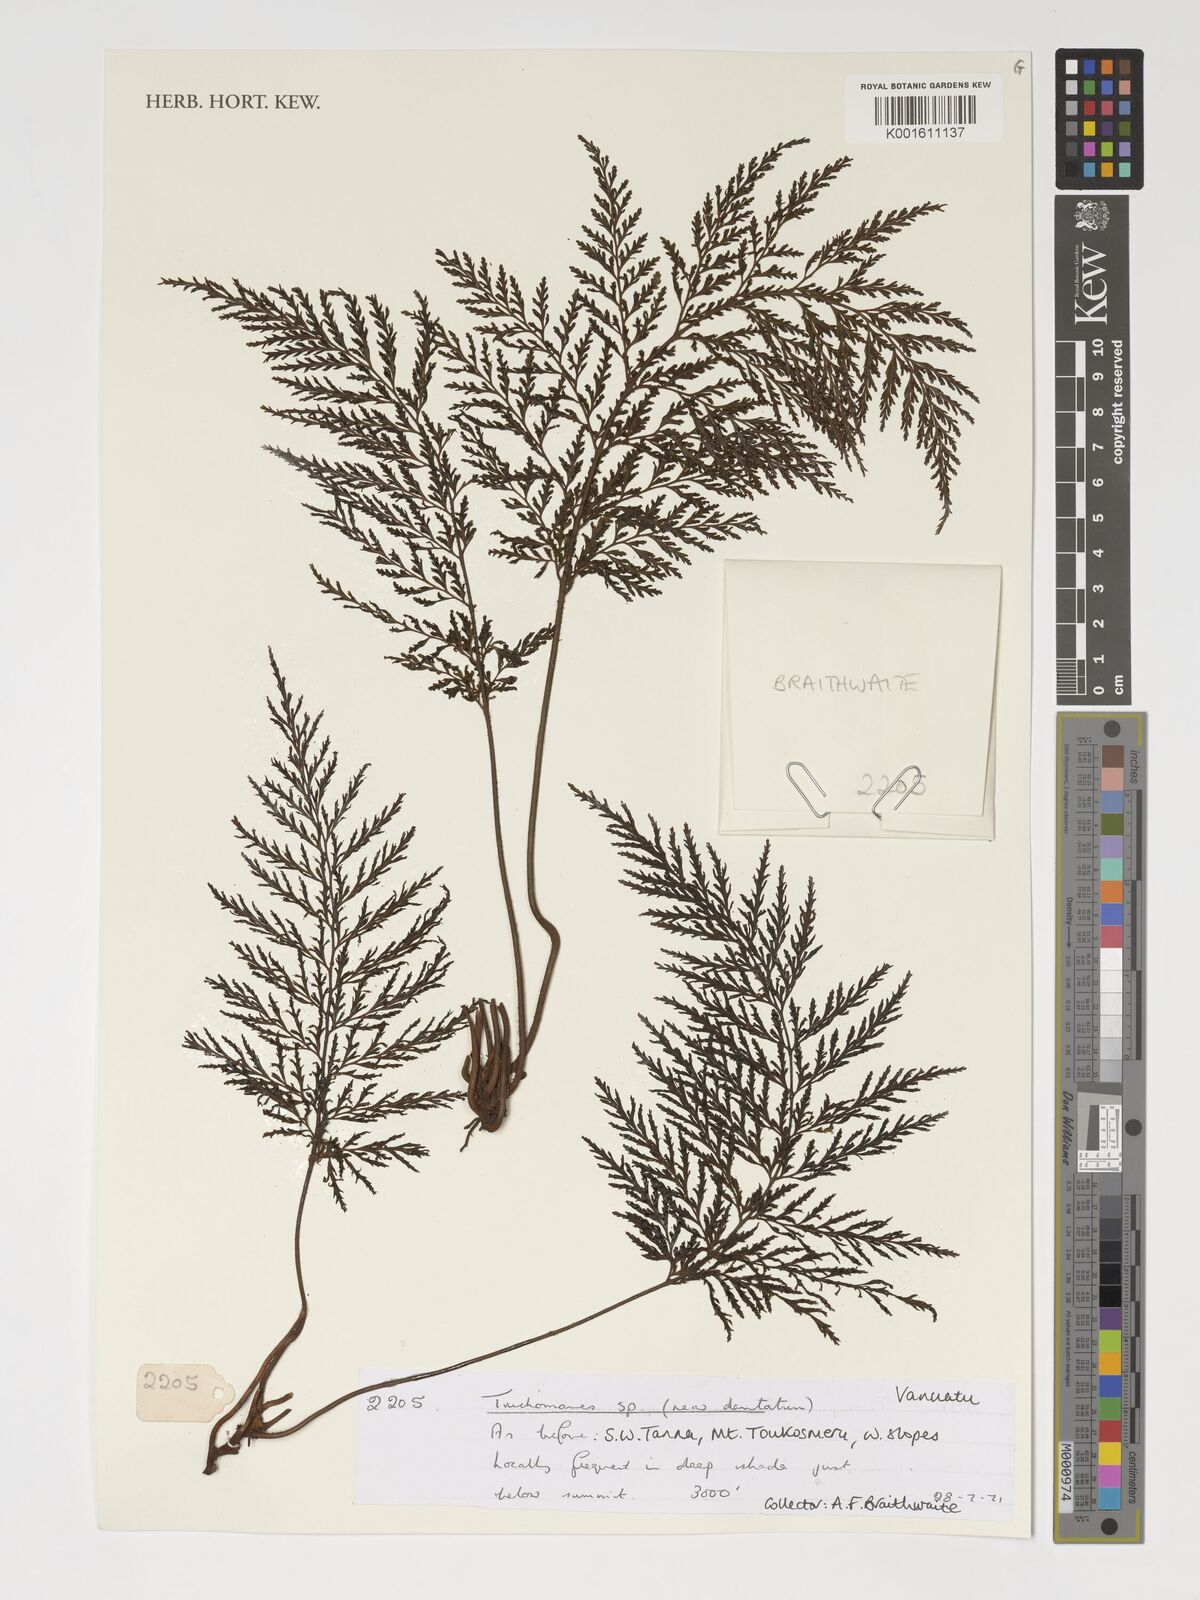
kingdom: Plantae
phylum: Tracheophyta
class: Polypodiopsida
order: Hymenophyllales
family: Hymenophyllaceae
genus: Abrodictyum
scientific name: Abrodictyum dentatum
